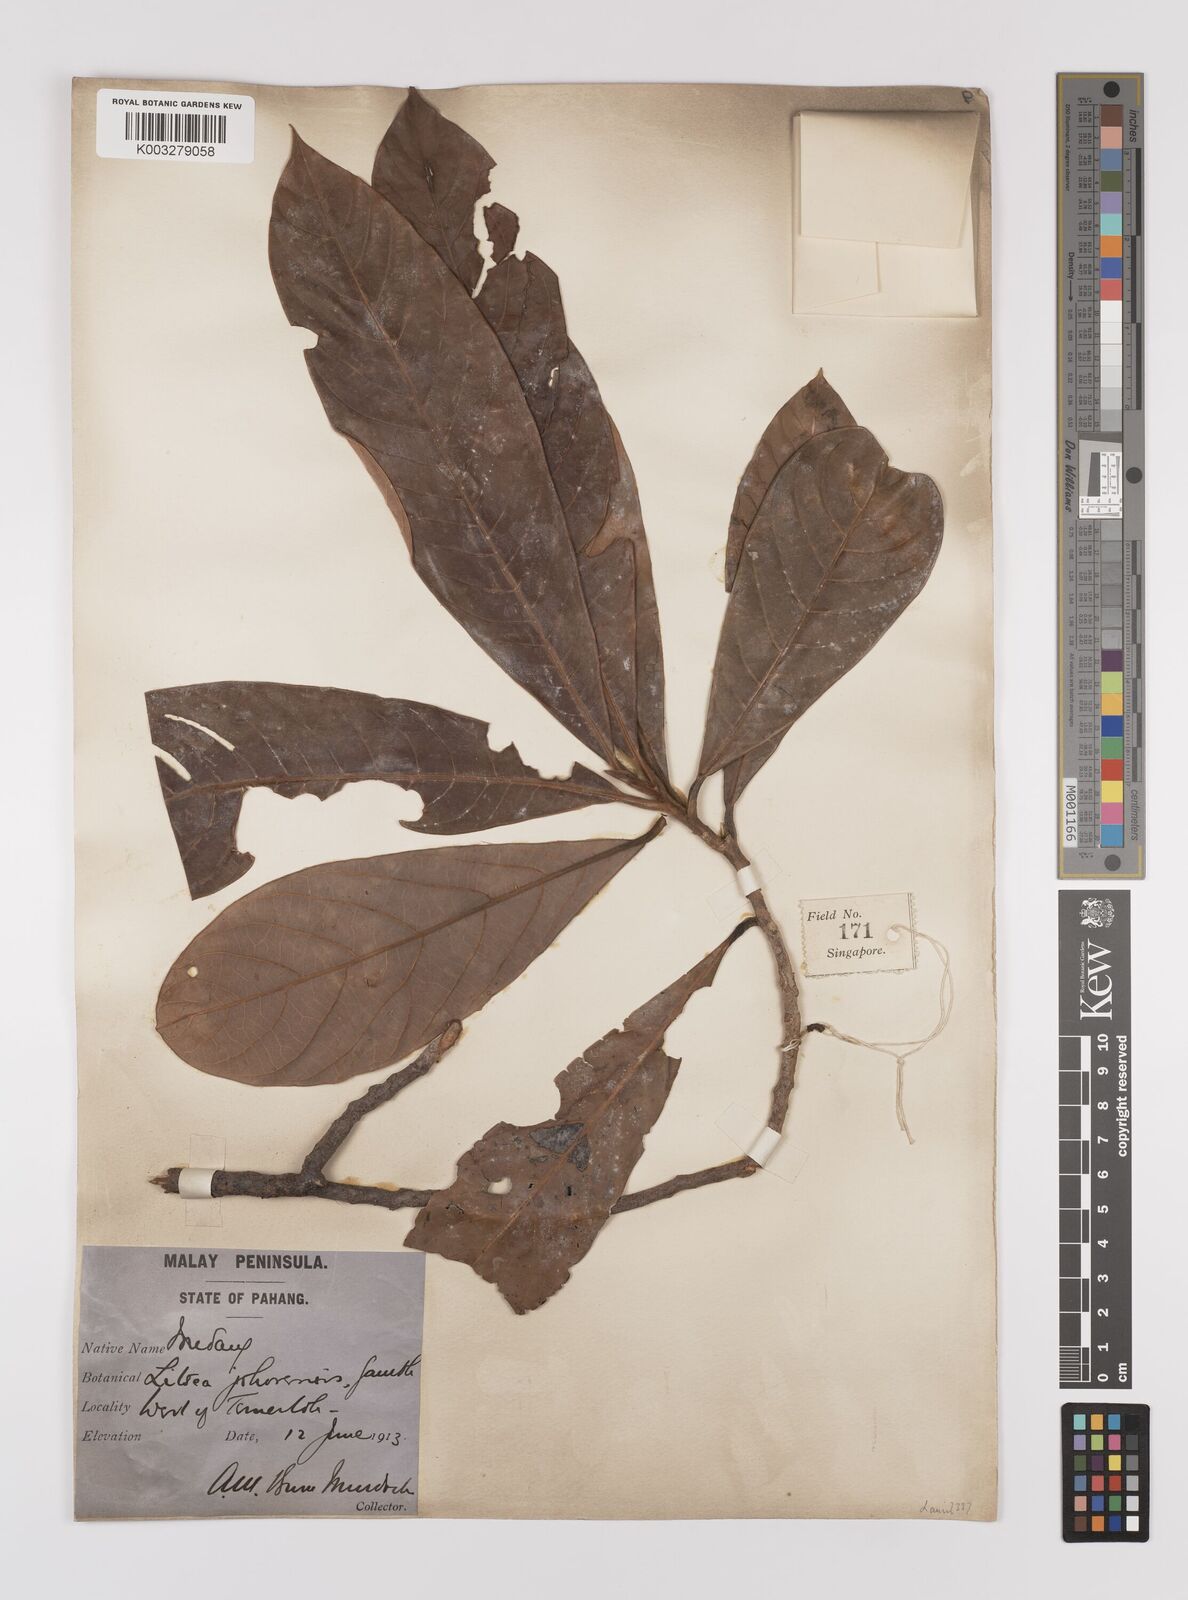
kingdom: Plantae
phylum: Tracheophyta
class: Magnoliopsida
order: Laurales
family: Lauraceae
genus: Litsea
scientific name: Litsea johorensis
